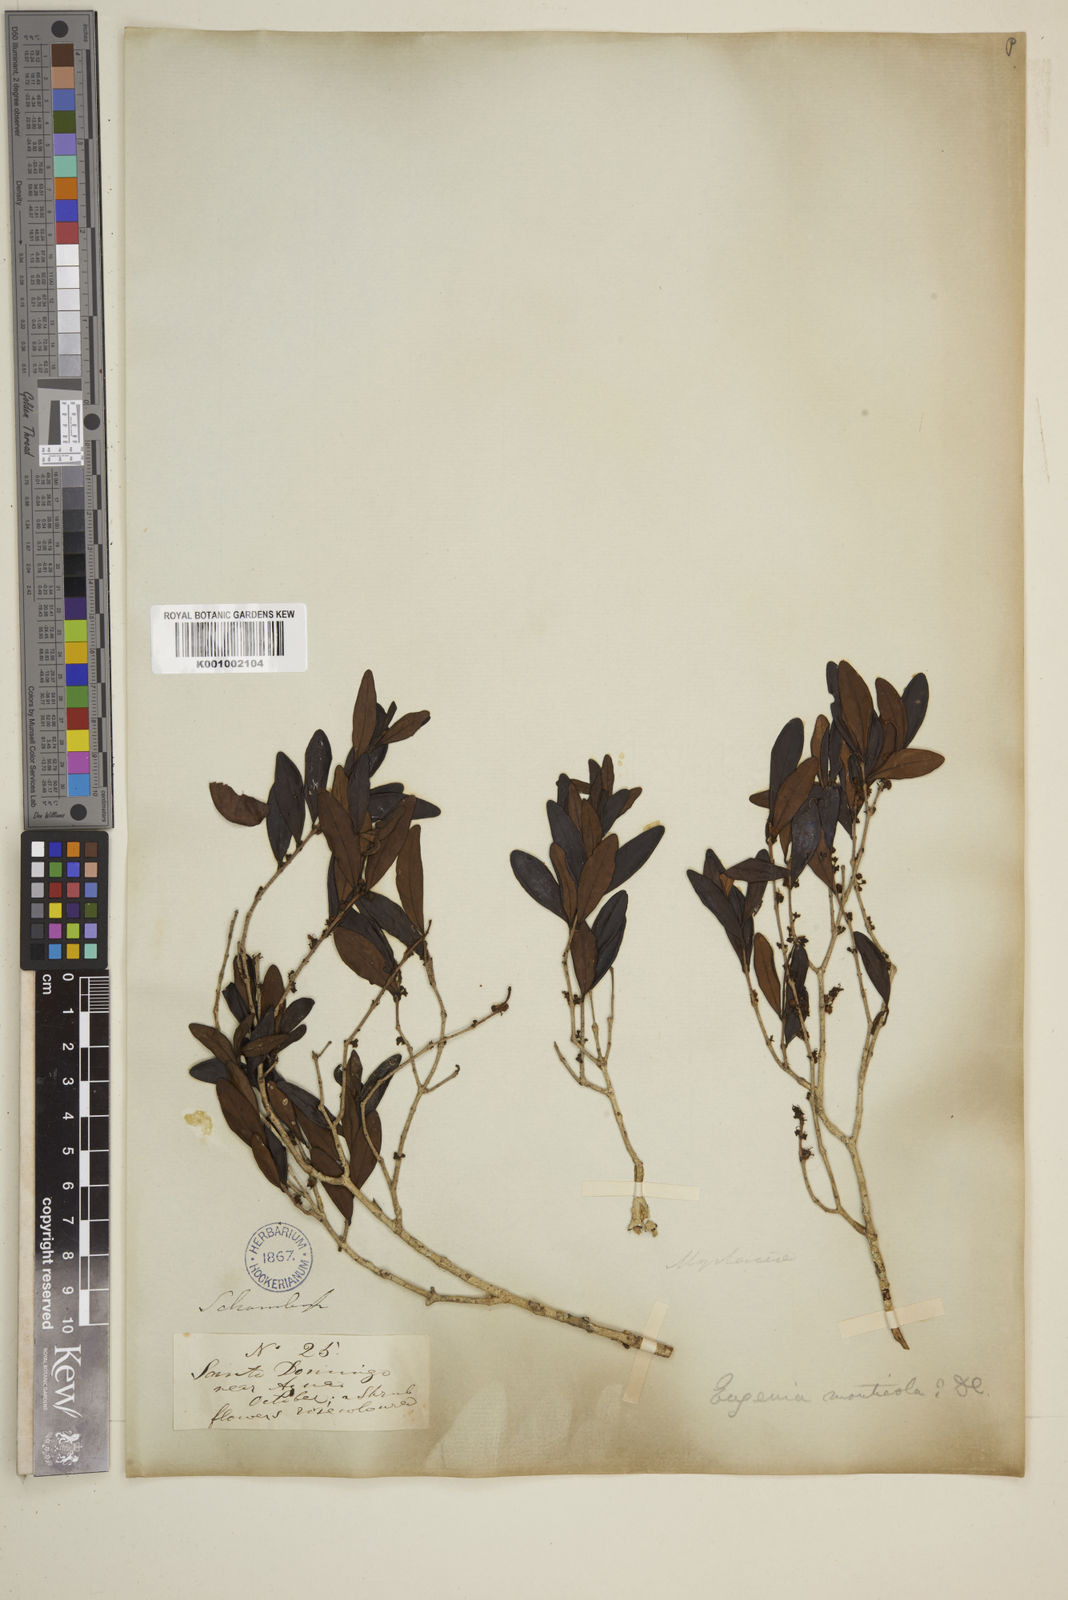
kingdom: Plantae
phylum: Tracheophyta
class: Magnoliopsida
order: Myrtales
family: Myrtaceae
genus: Eugenia
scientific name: Eugenia monticola
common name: Birds berry
